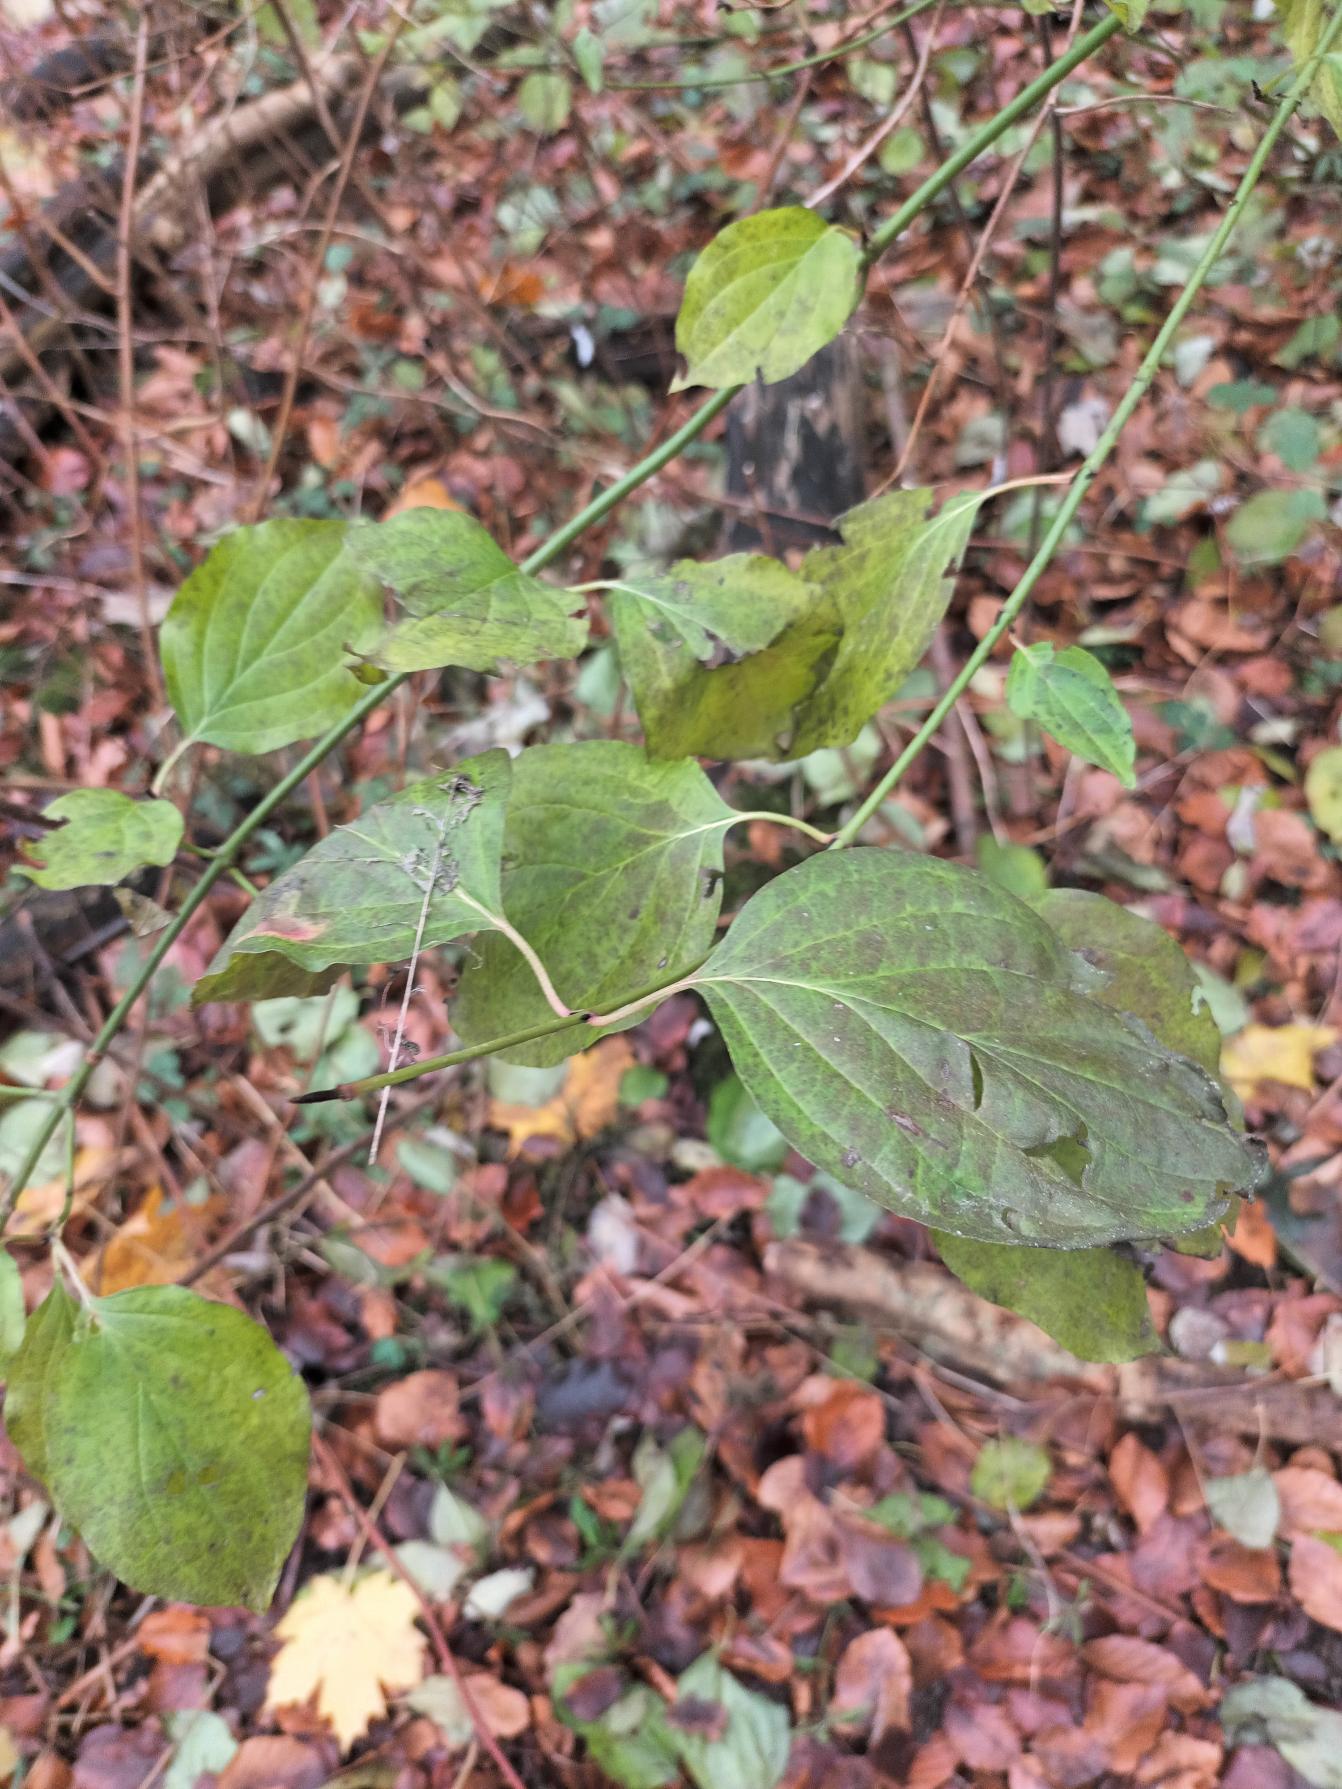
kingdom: Plantae
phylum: Tracheophyta
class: Magnoliopsida
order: Cornales
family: Cornaceae
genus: Cornus
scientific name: Cornus
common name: Kornelslægten
